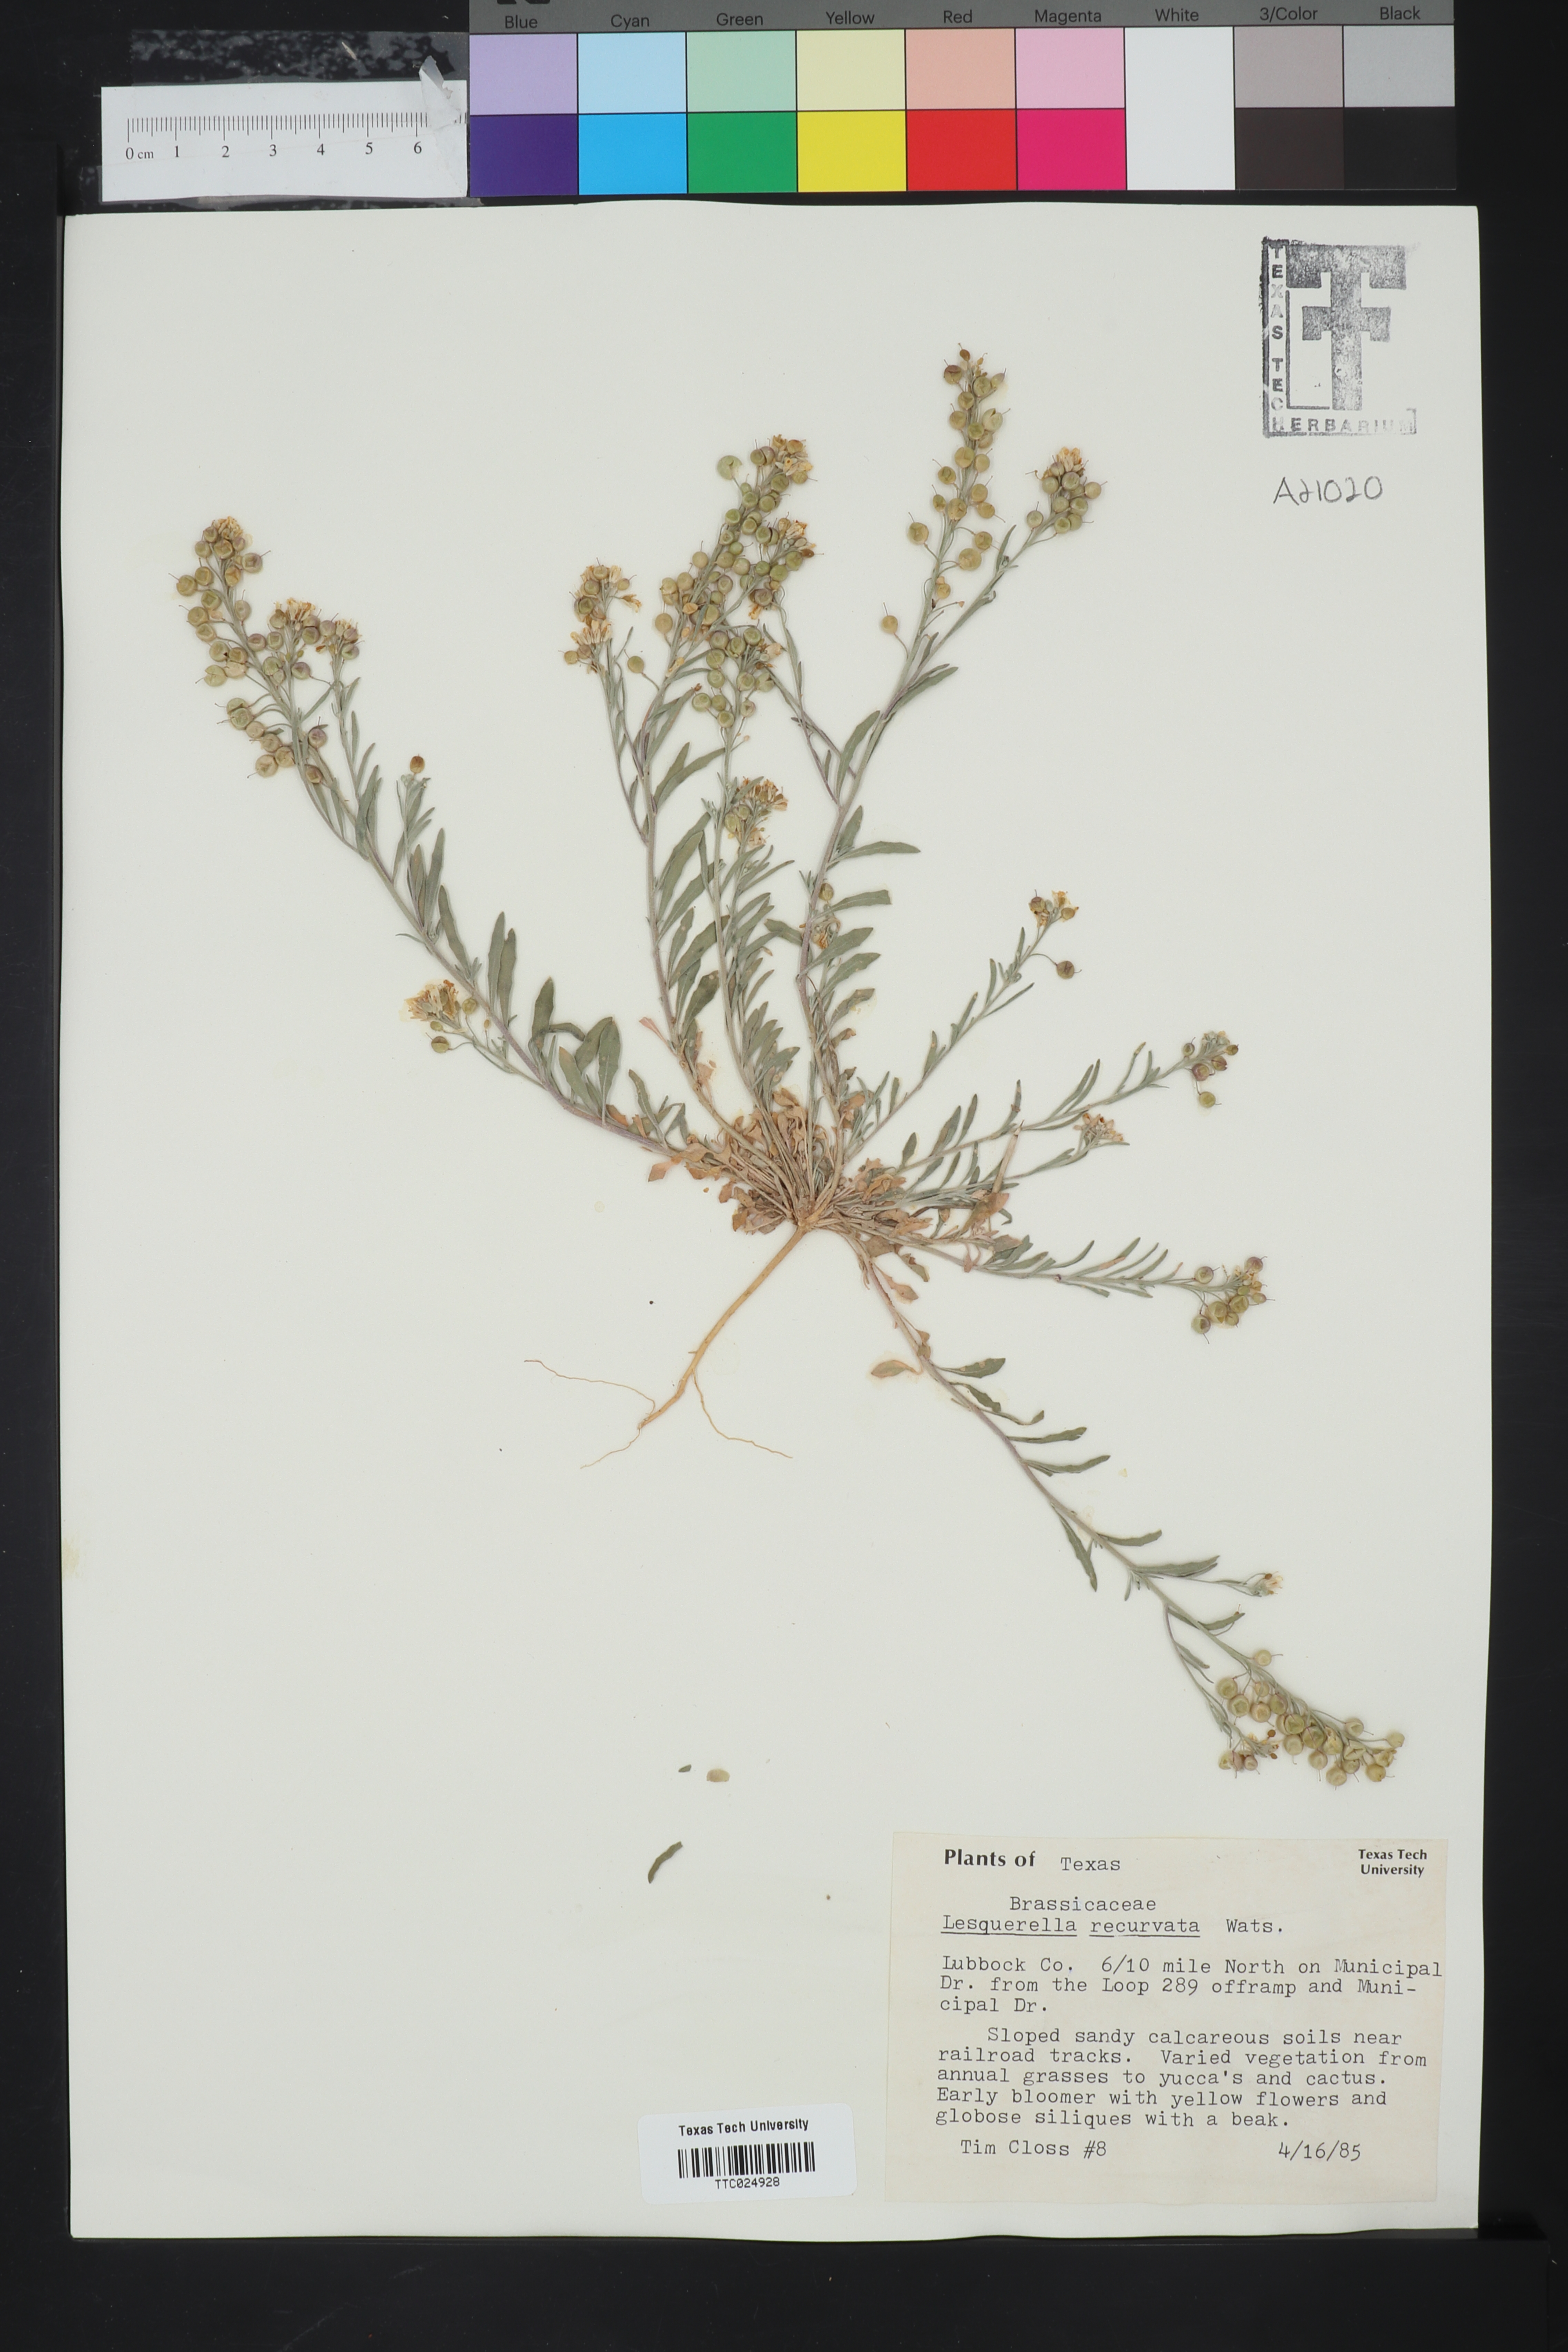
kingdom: Plantae
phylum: Tracheophyta
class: Magnoliopsida
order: Brassicales
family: Brassicaceae
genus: Physaria
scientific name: Physaria recurvata
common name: Gaslight bladderpod
